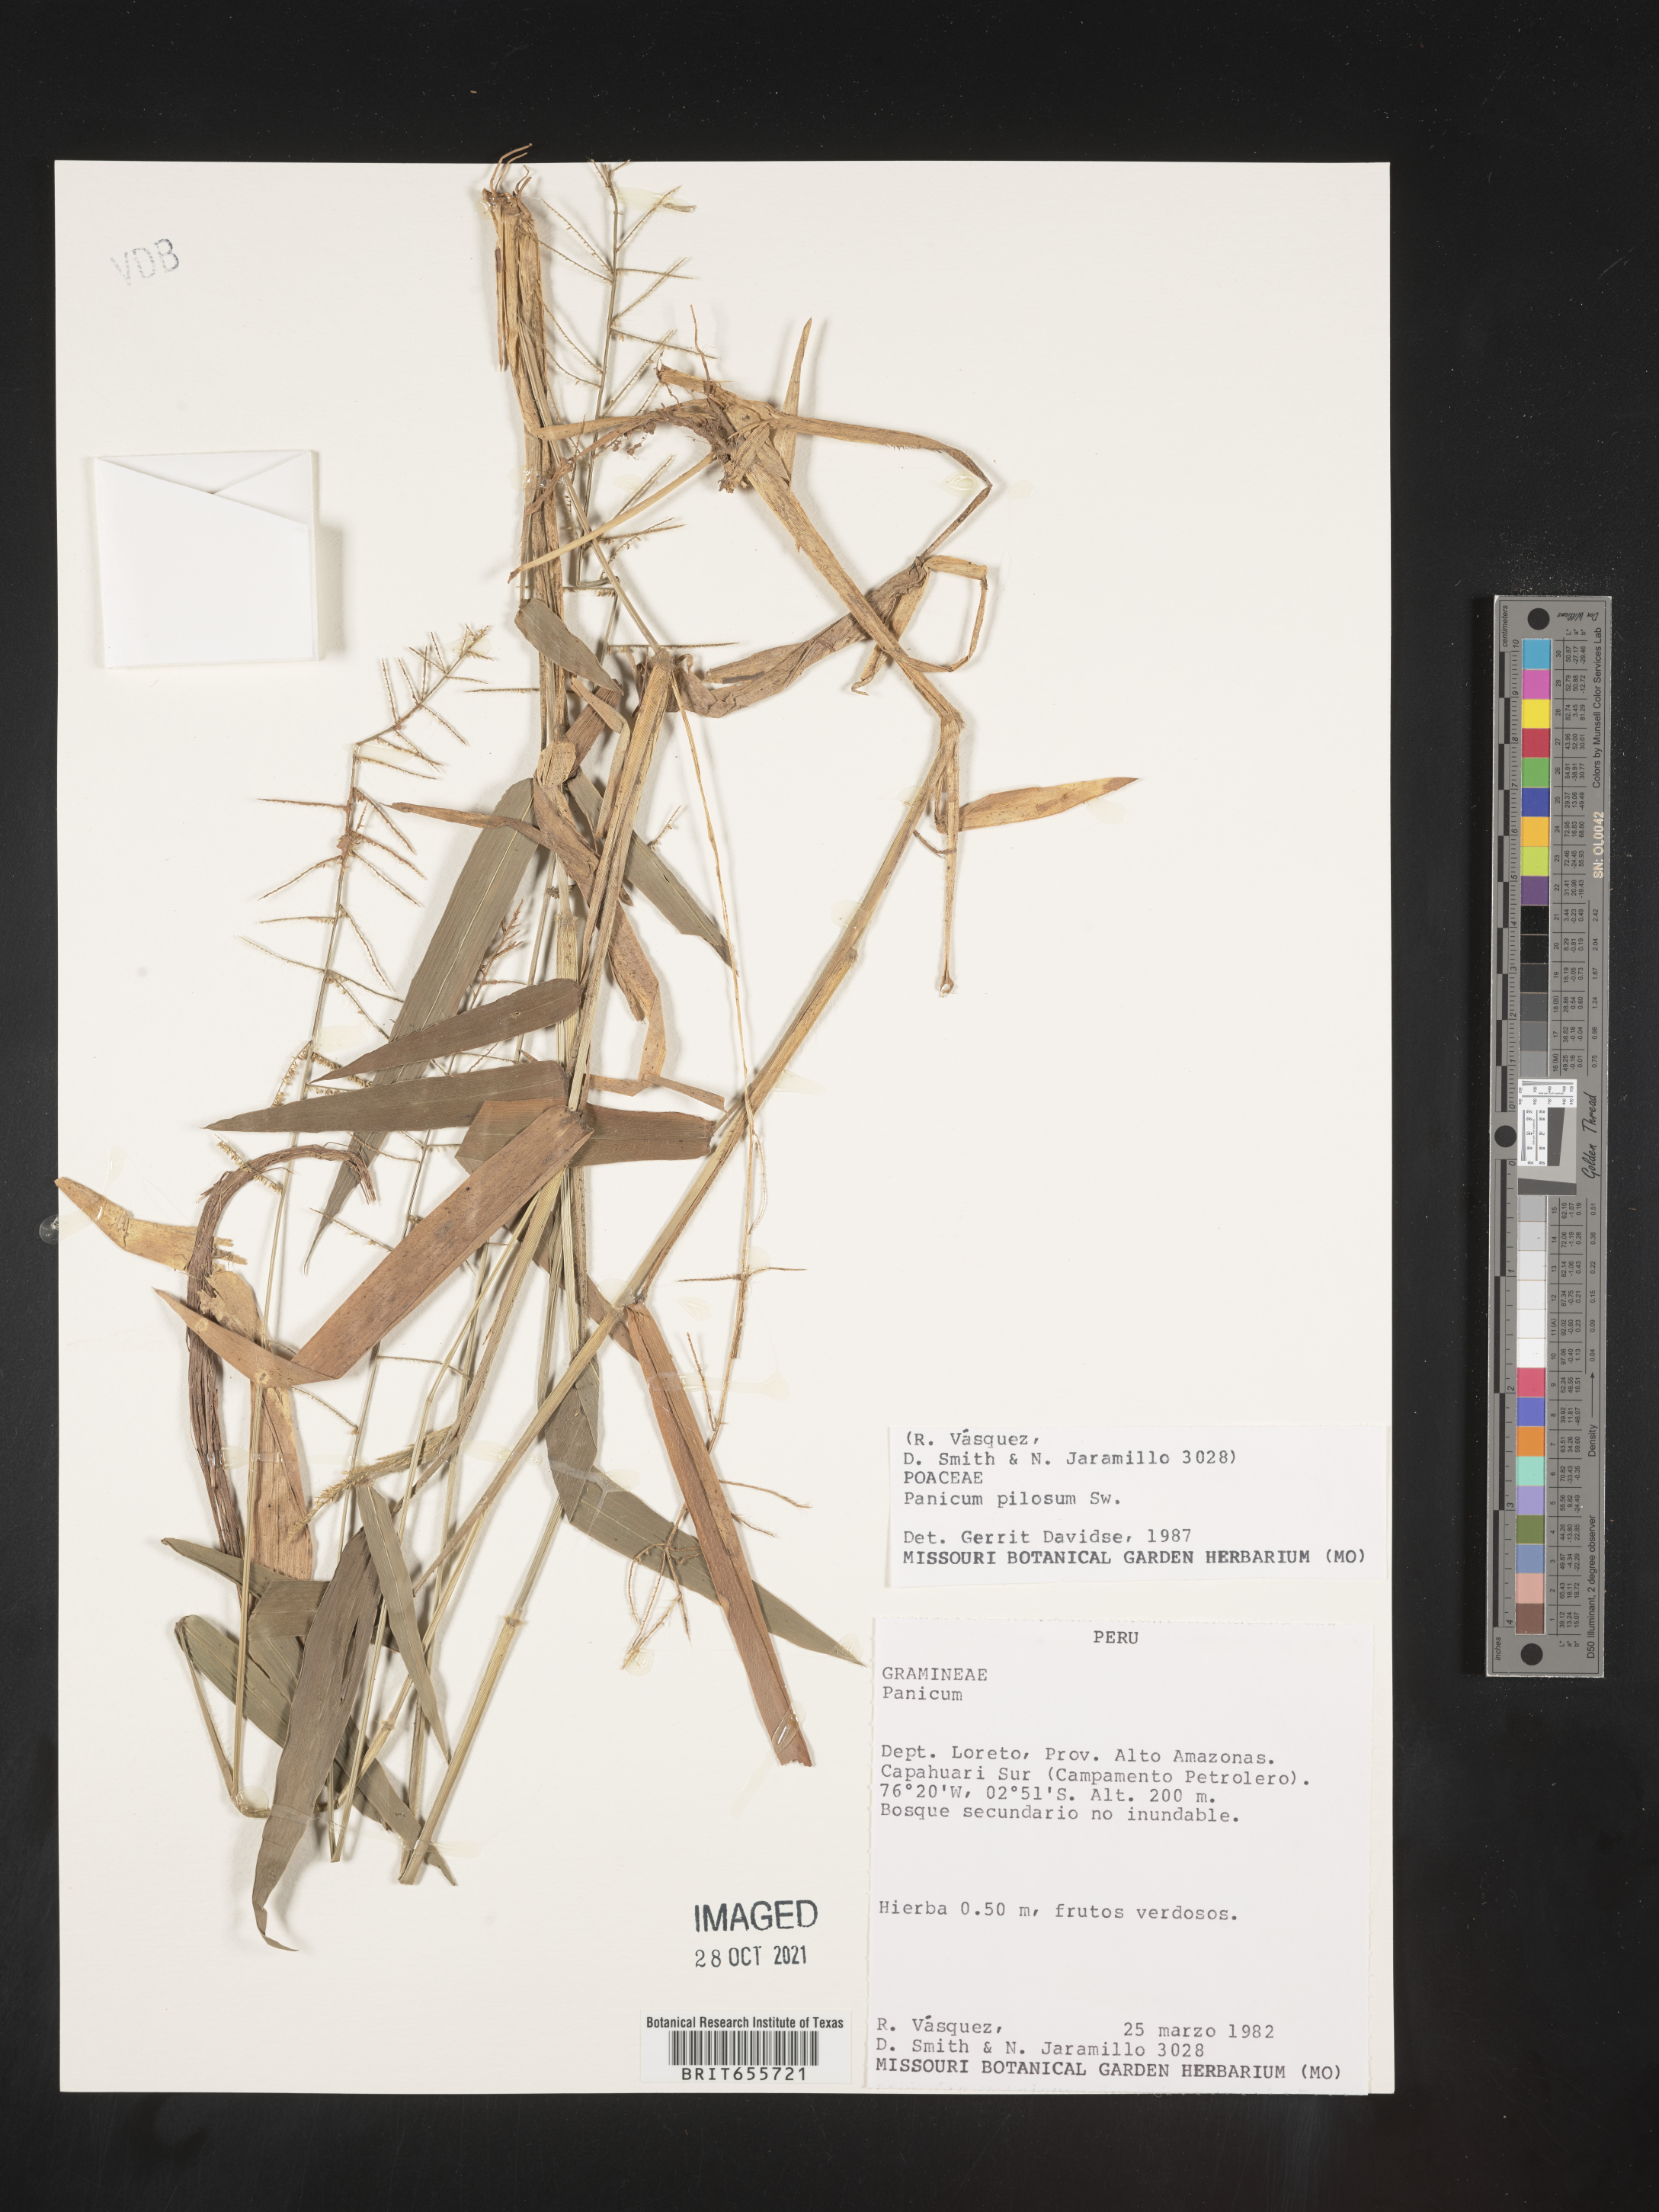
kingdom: Plantae
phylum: Tracheophyta
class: Liliopsida
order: Poales
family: Poaceae
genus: Panicum
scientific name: Panicum
